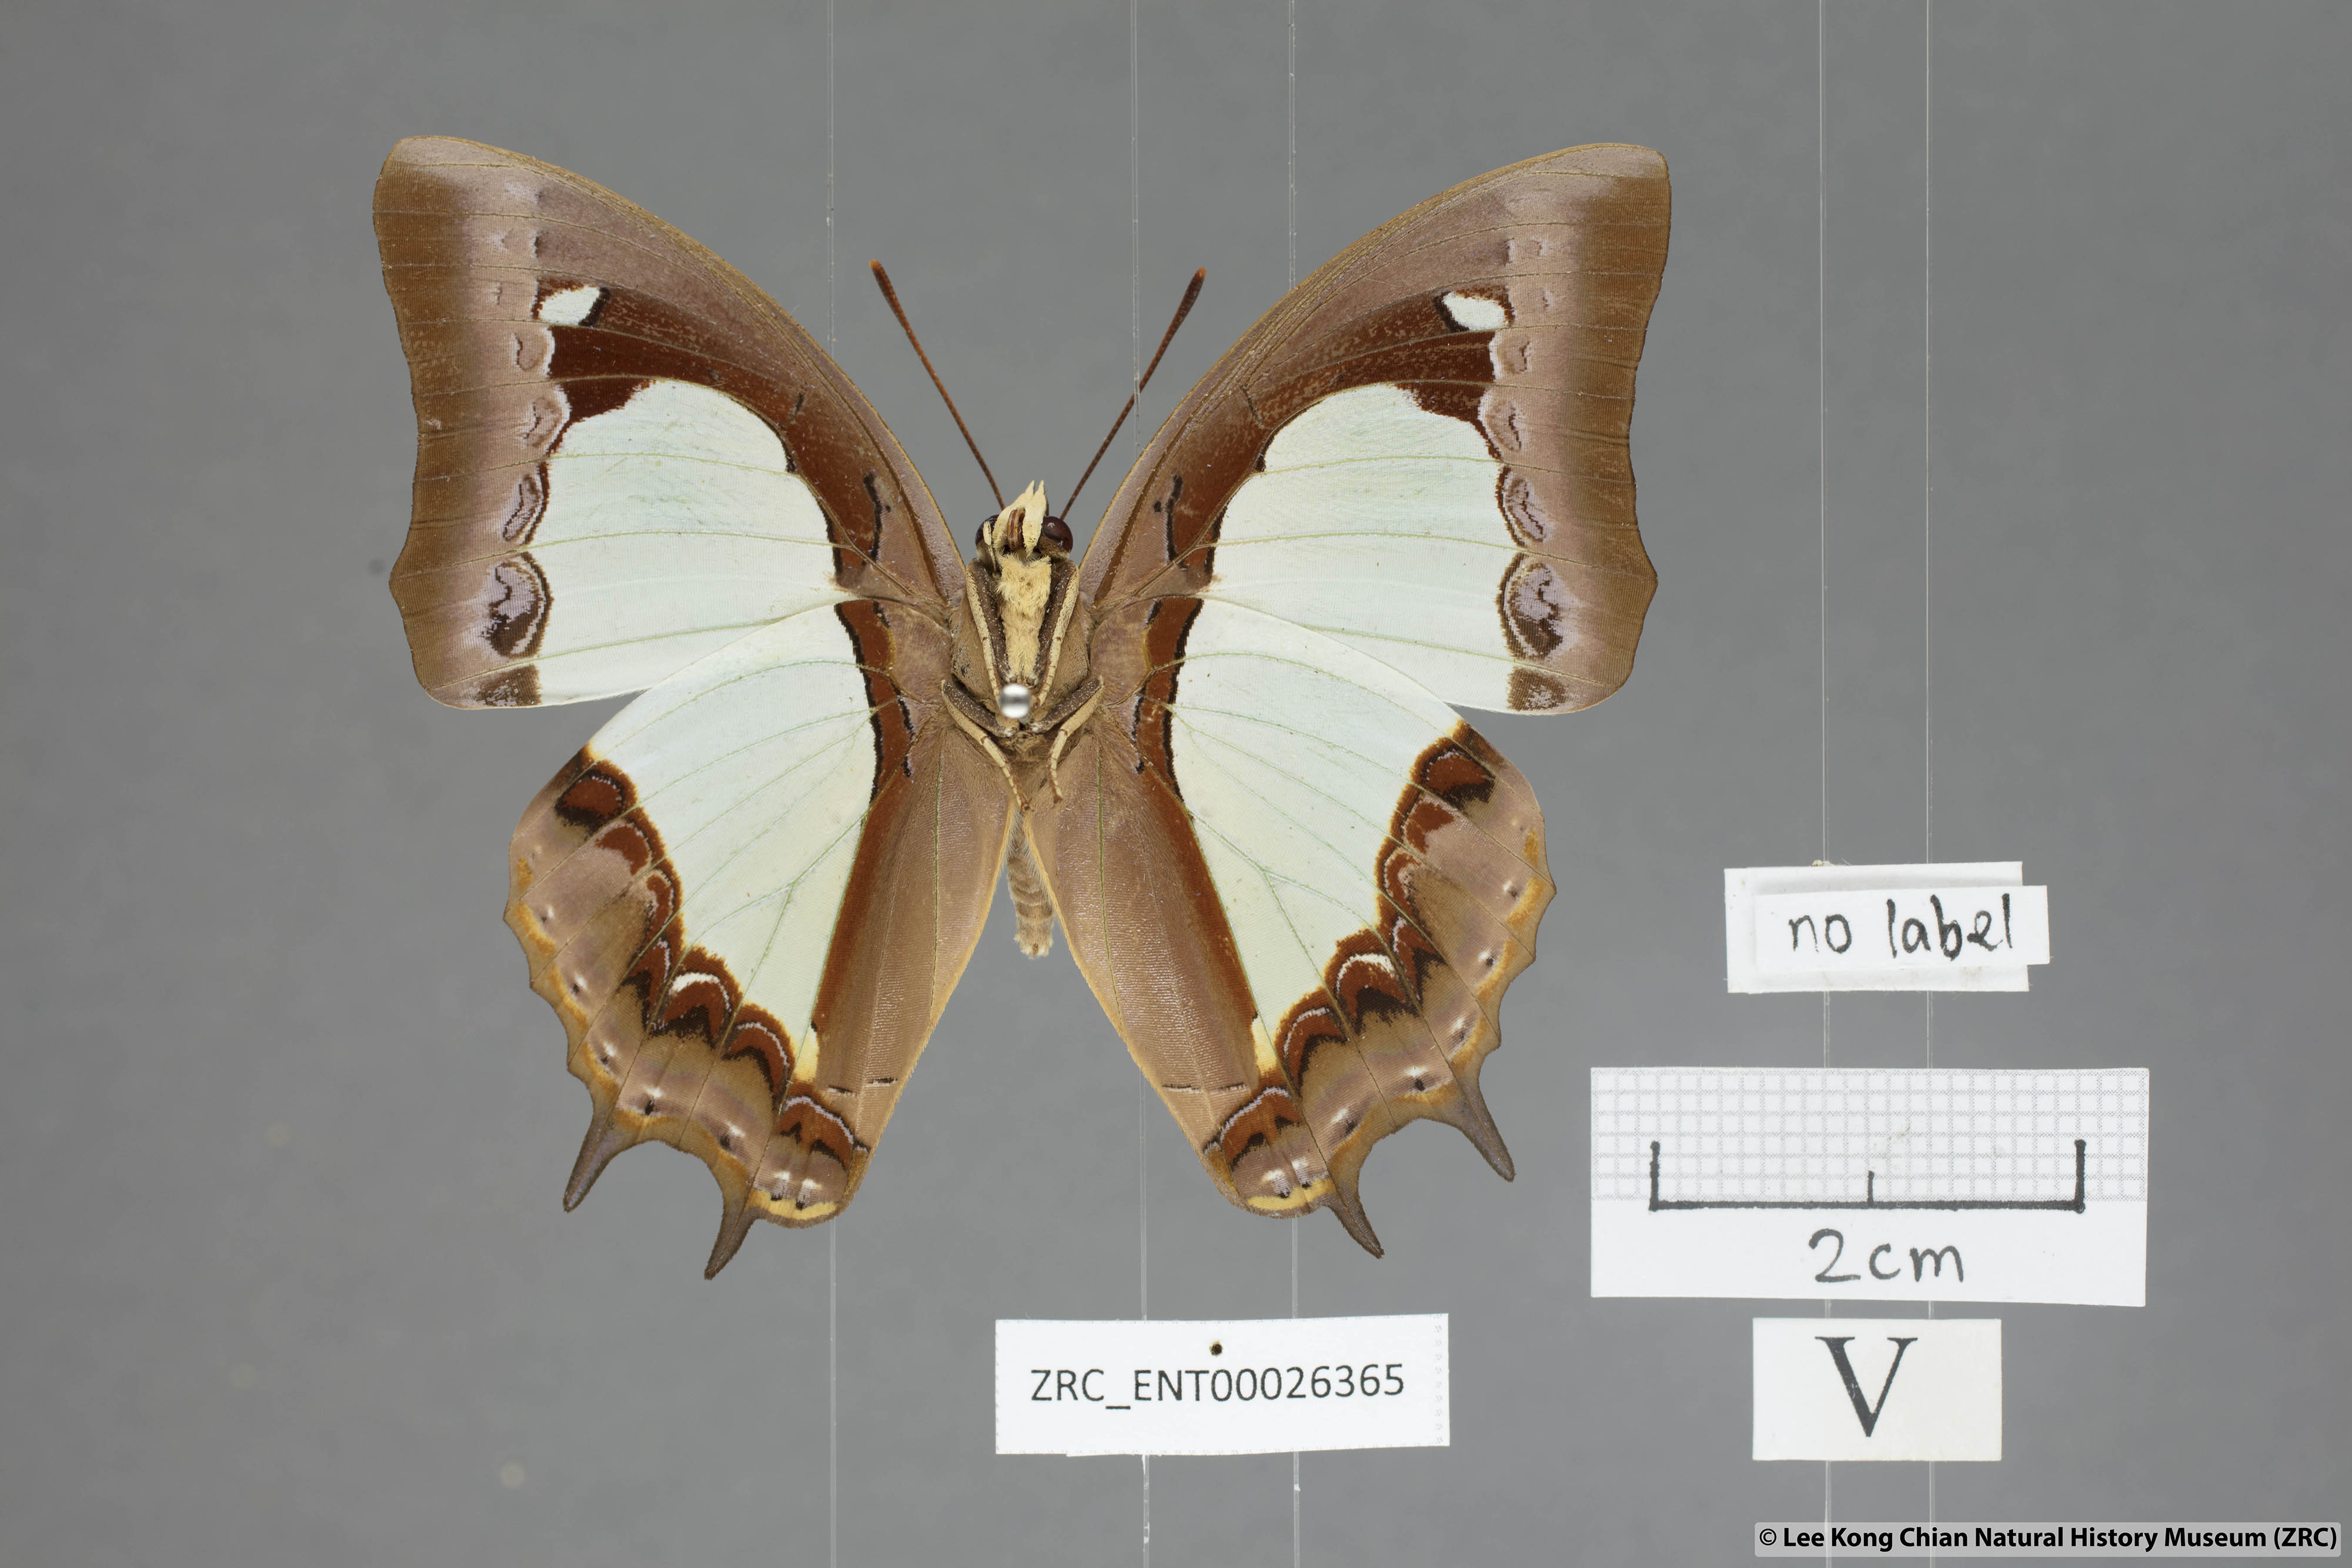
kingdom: Animalia
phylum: Arthropoda
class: Insecta
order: Lepidoptera
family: Nymphalidae
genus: Polyura
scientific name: Polyura moori
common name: Malayan nawab
